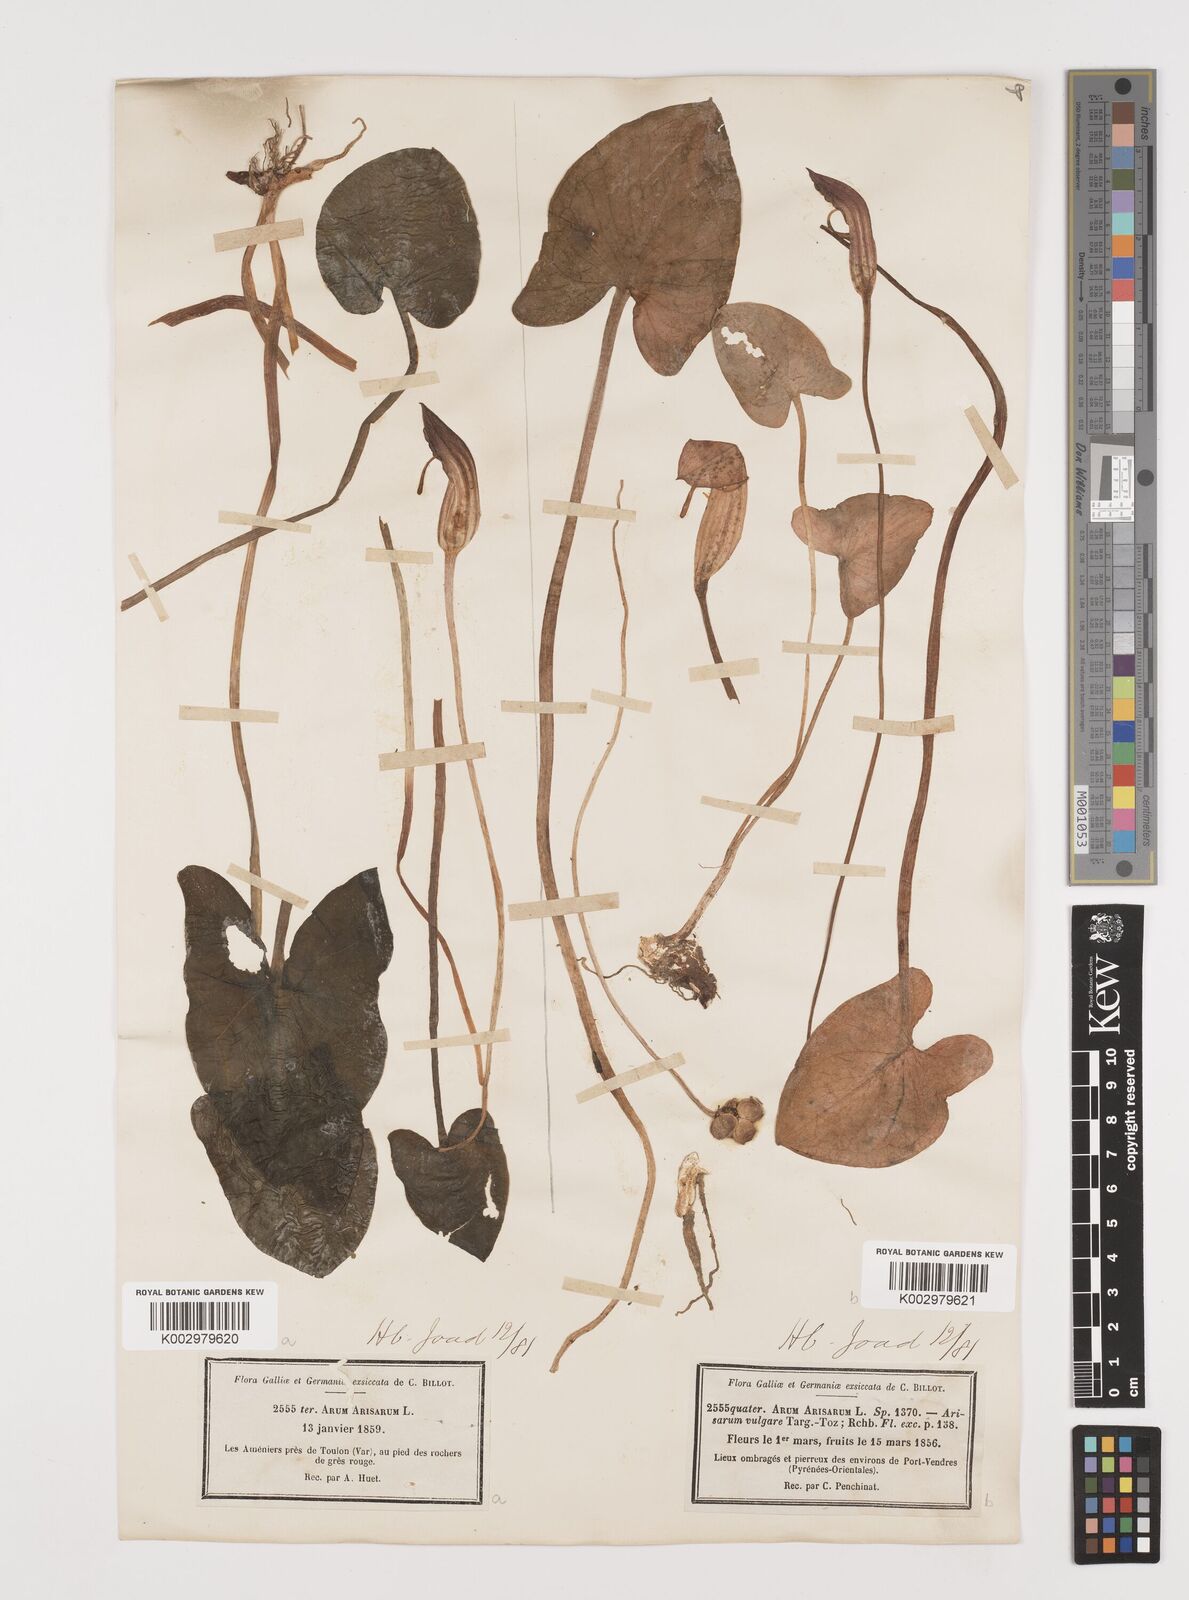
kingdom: Plantae
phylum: Tracheophyta
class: Liliopsida
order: Alismatales
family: Araceae
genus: Arisarum
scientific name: Arisarum vulgare
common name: Common arisarum
